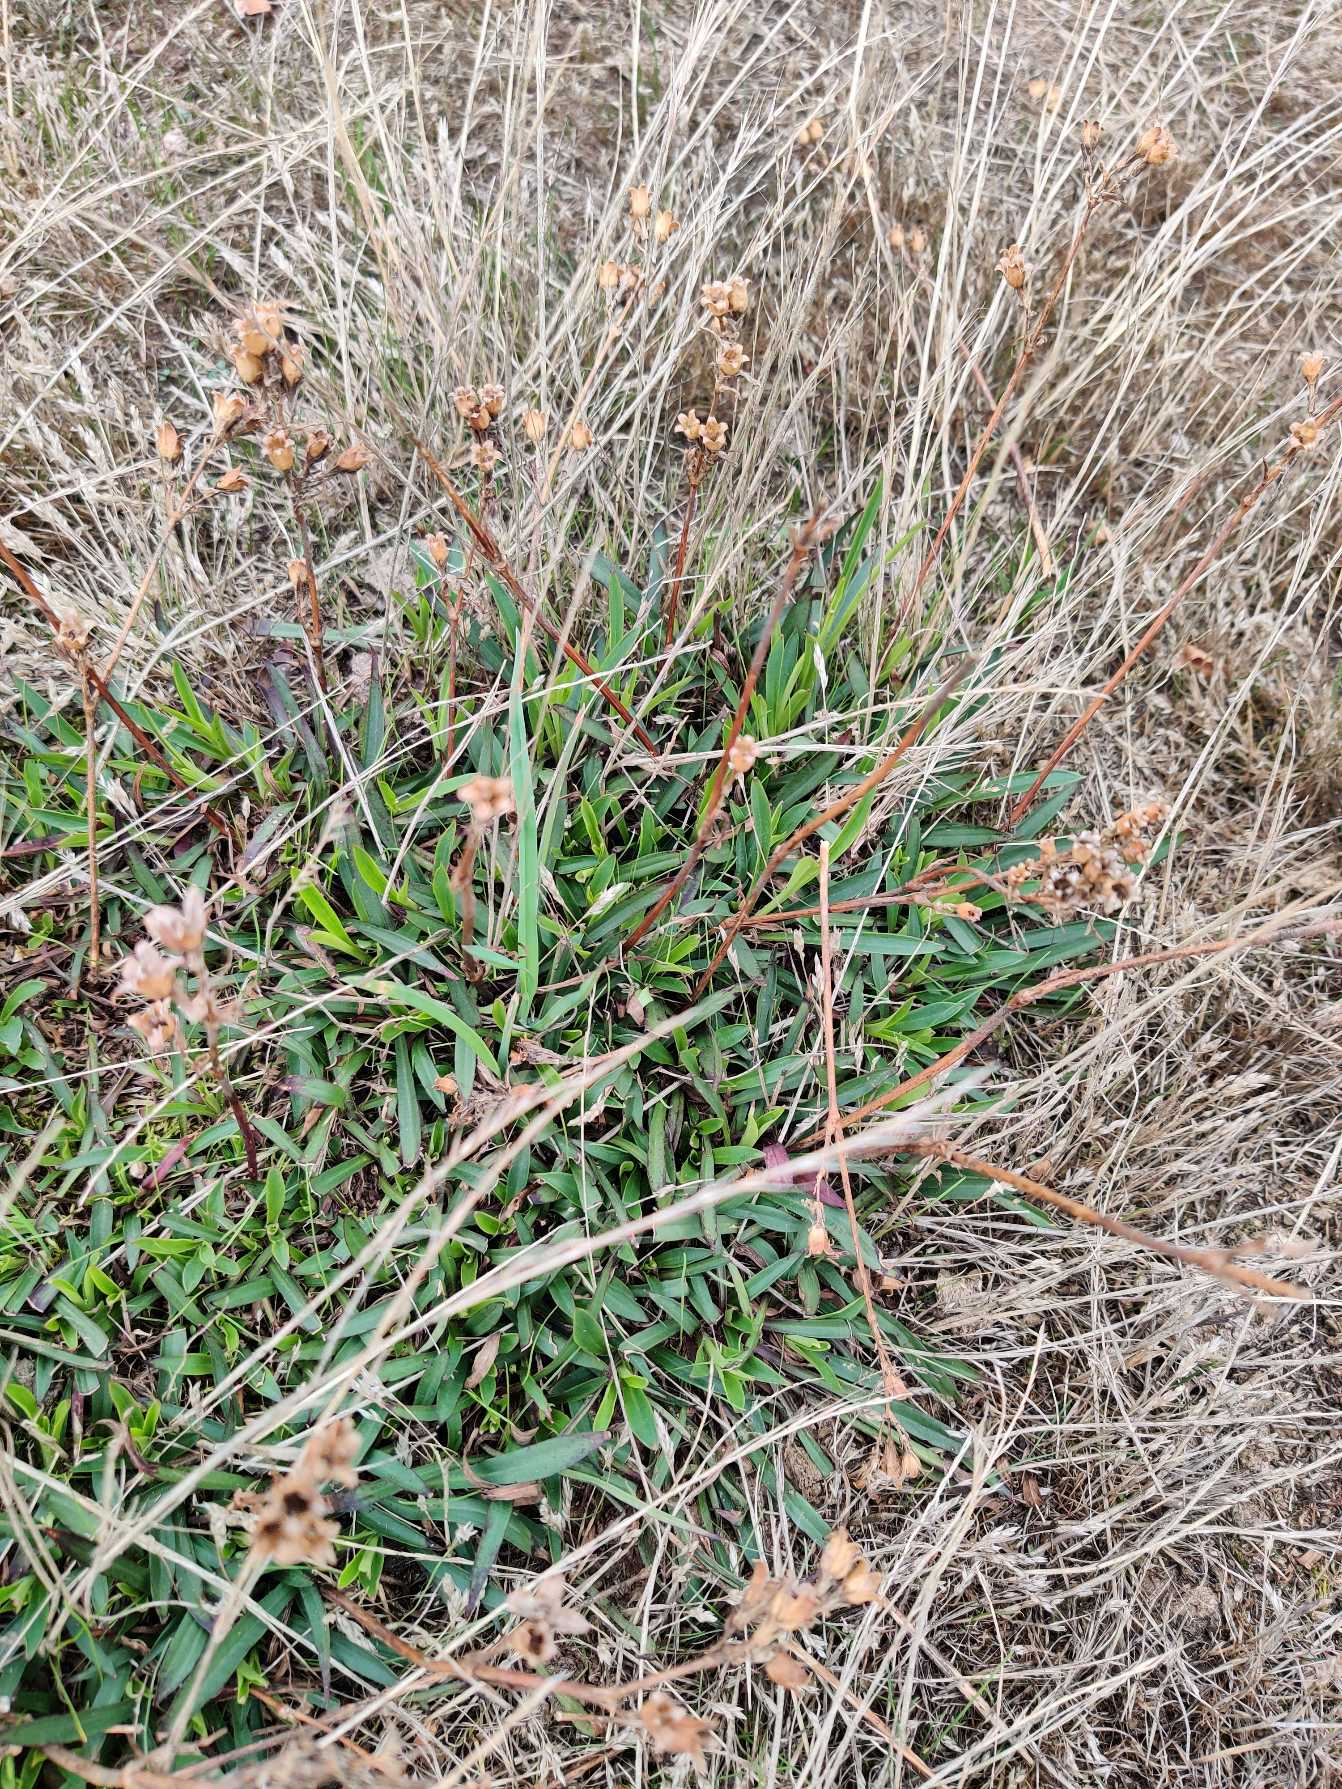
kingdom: Plantae
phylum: Tracheophyta
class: Magnoliopsida
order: Caryophyllales
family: Caryophyllaceae
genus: Viscaria
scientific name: Viscaria vulgaris
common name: Tjærenellike
